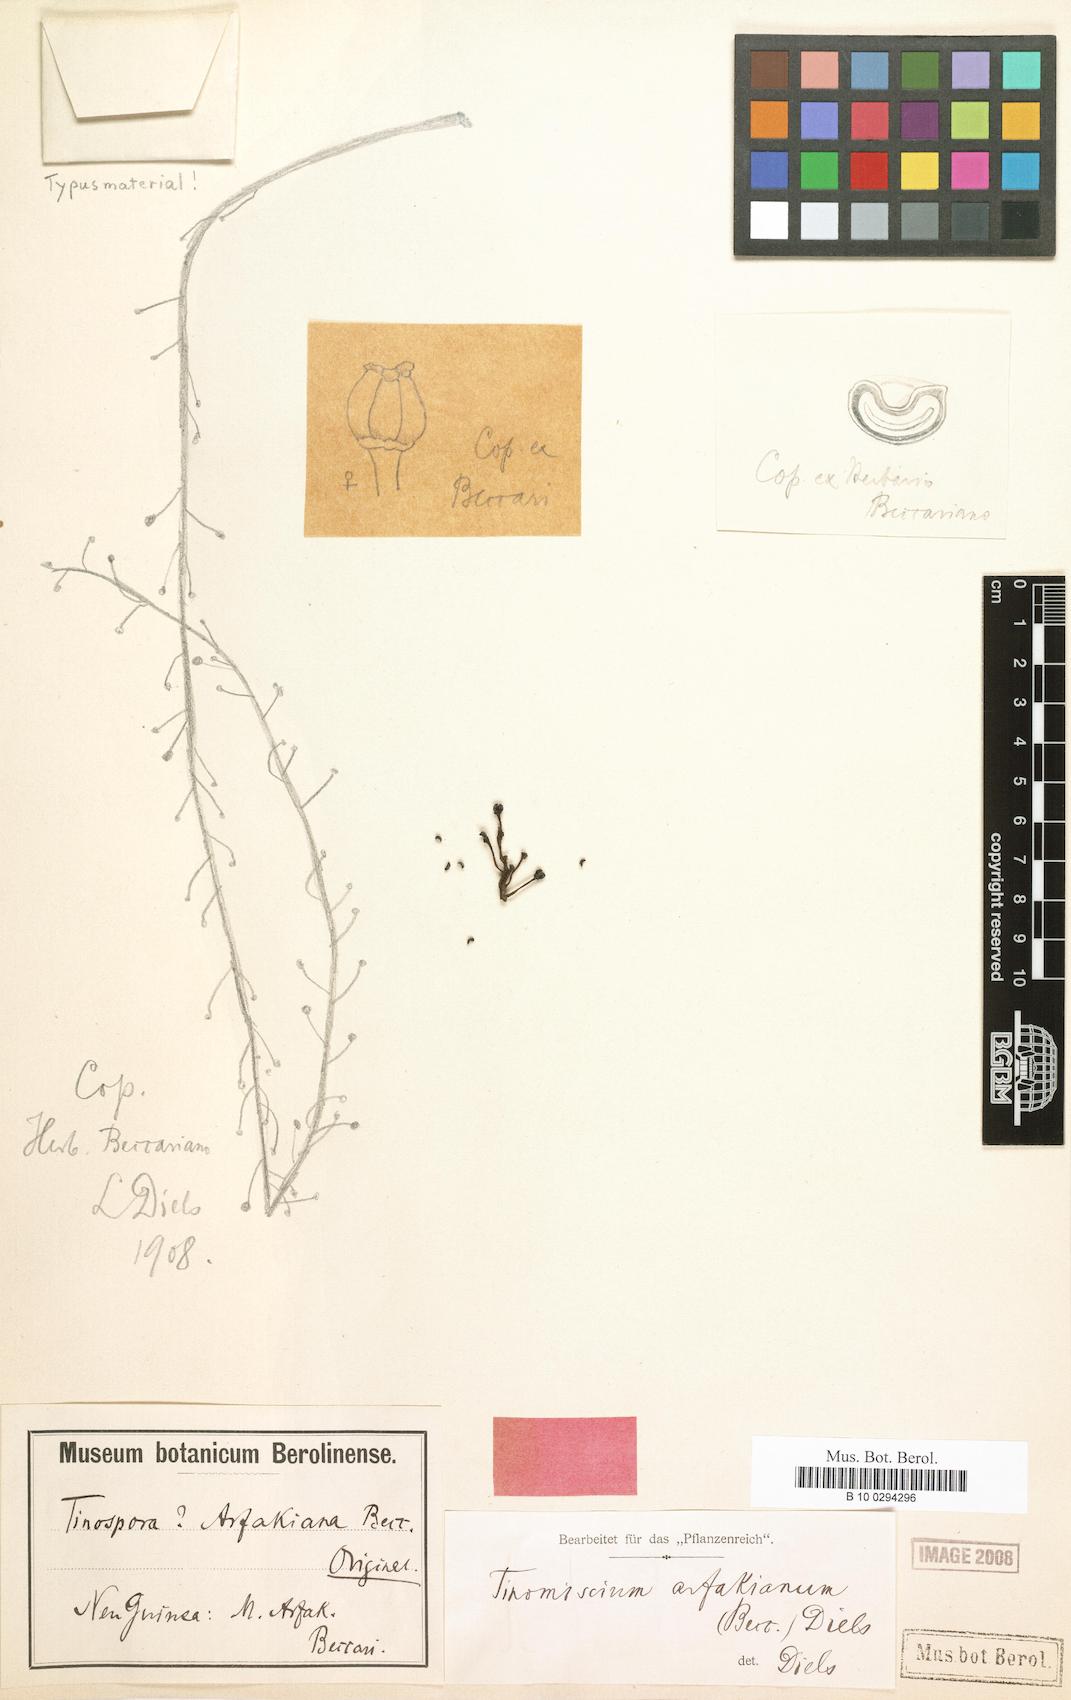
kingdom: Plantae
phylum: Tracheophyta
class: Magnoliopsida
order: Ranunculales
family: Menispermaceae
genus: Tinospora
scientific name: Tinospora arfakiana
